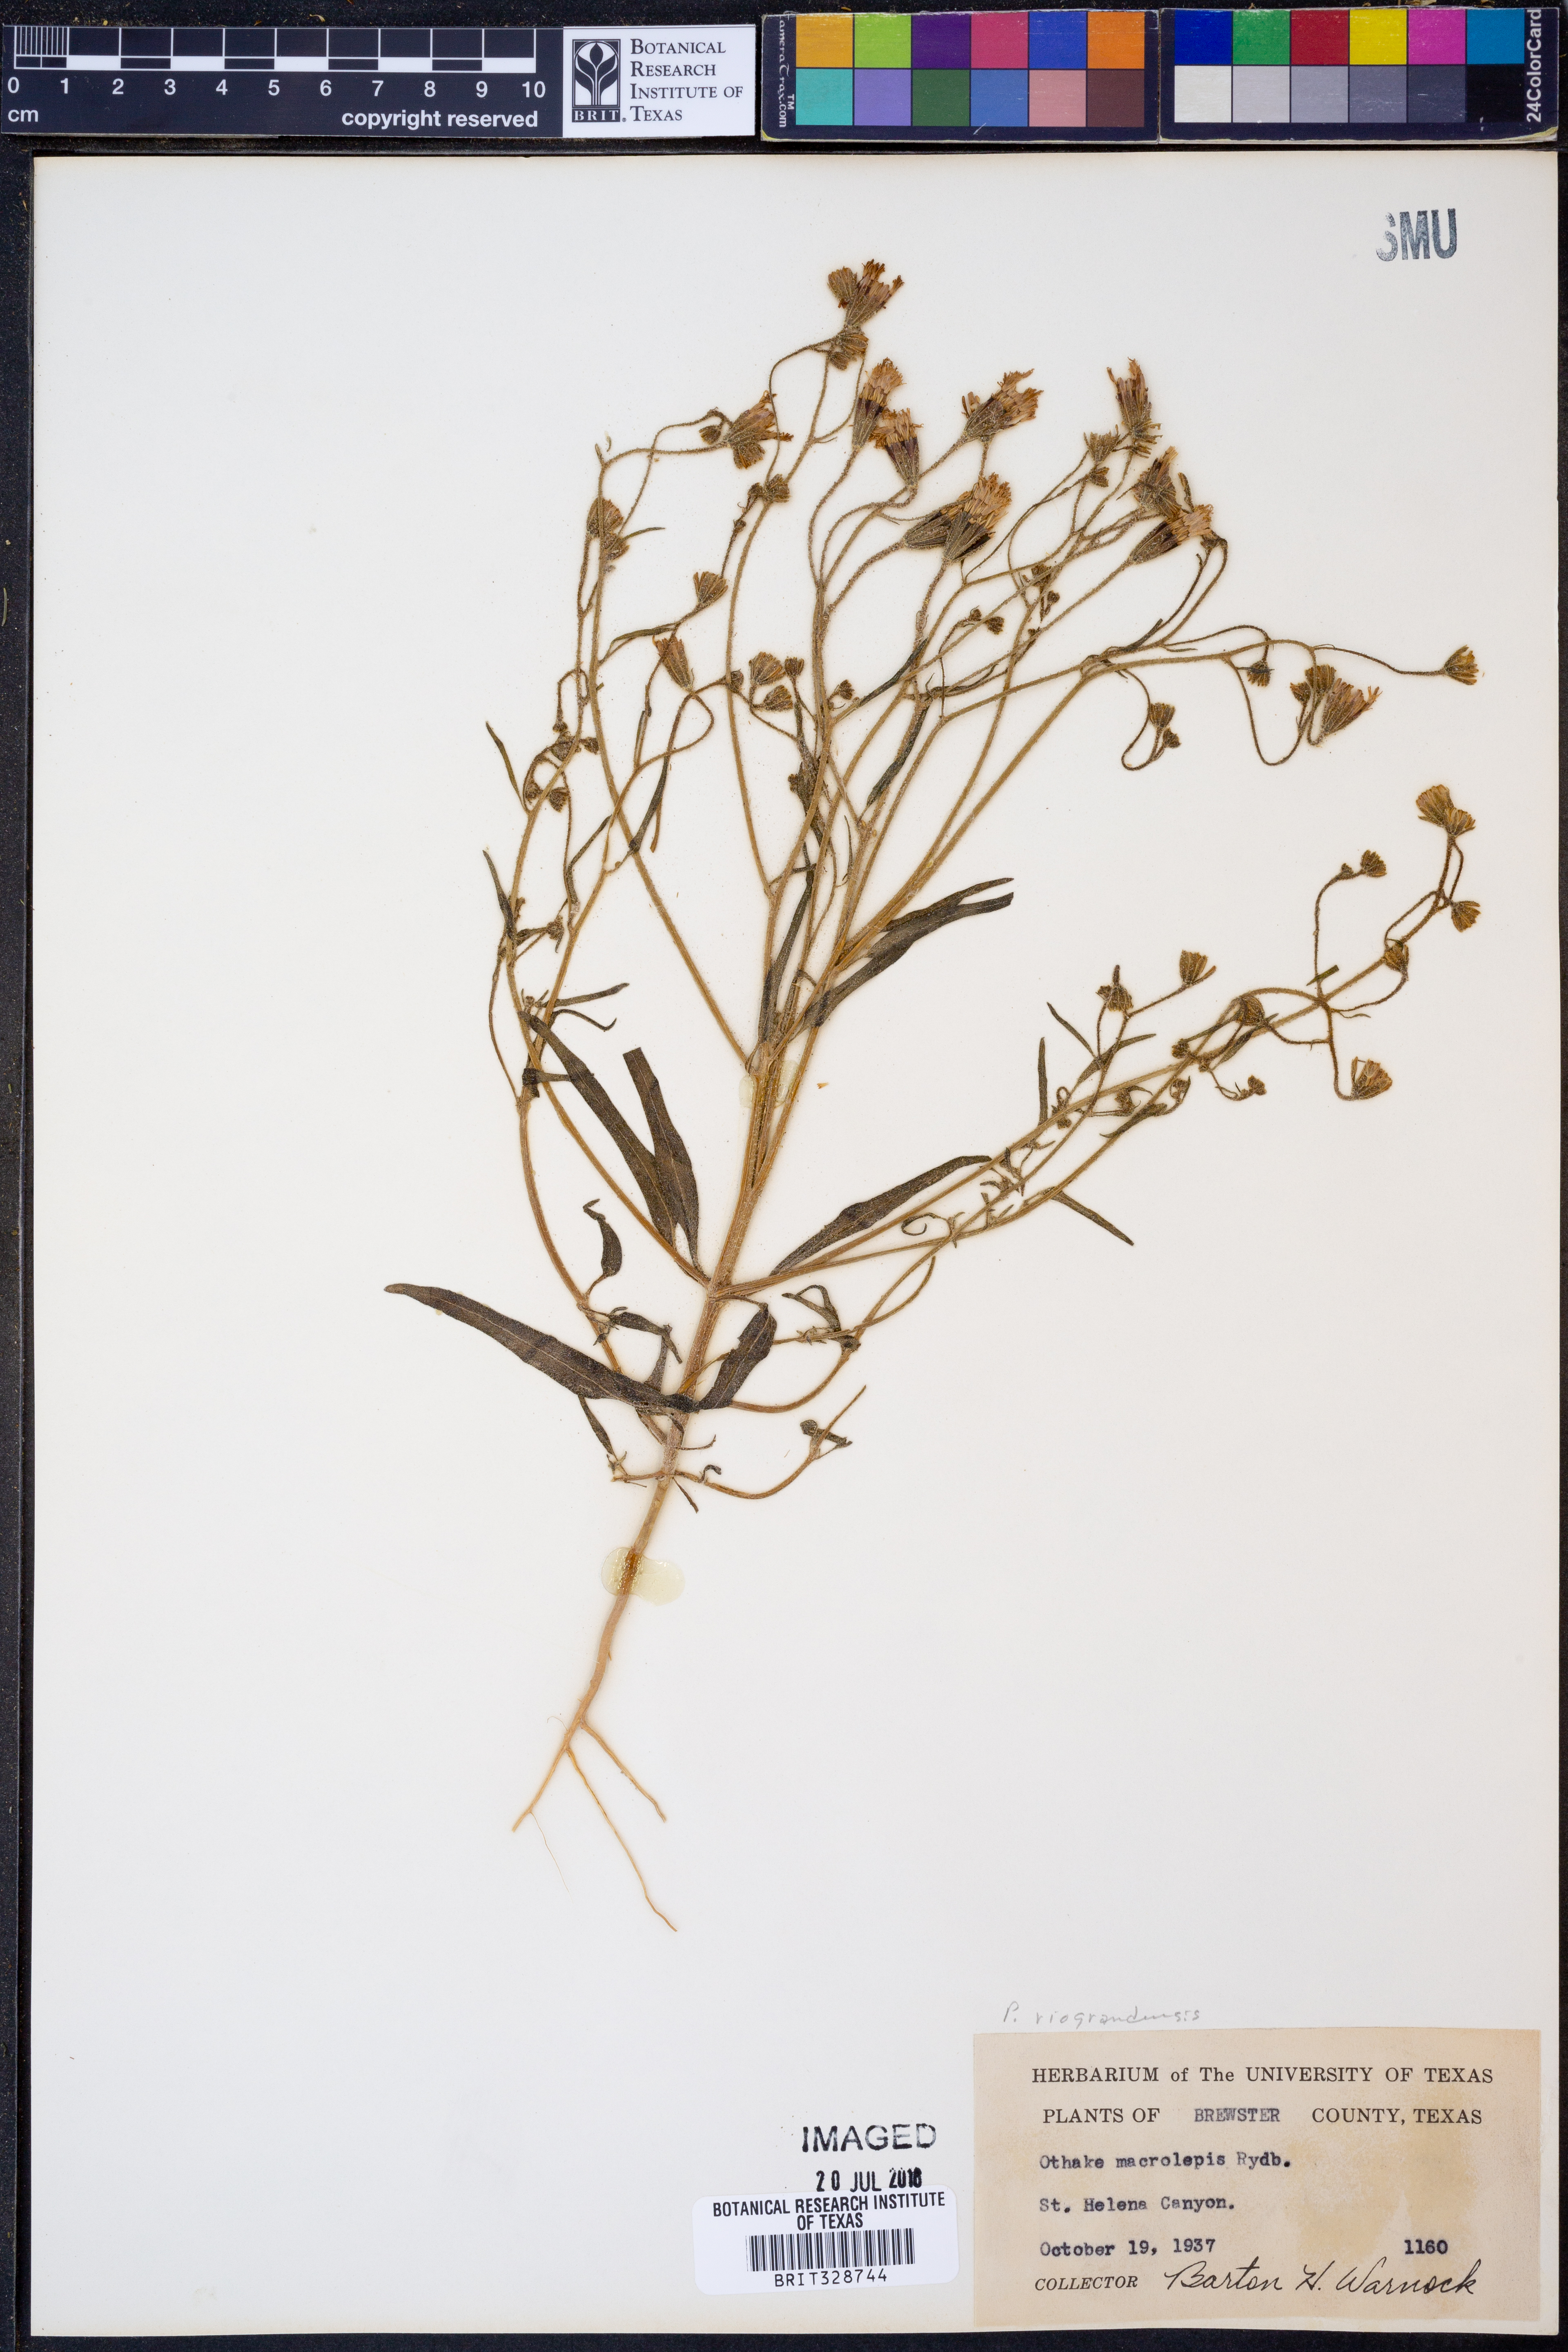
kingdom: Plantae
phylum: Tracheophyta
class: Magnoliopsida
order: Asterales
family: Asteraceae
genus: Palafoxia
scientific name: Palafoxia riograndensis
